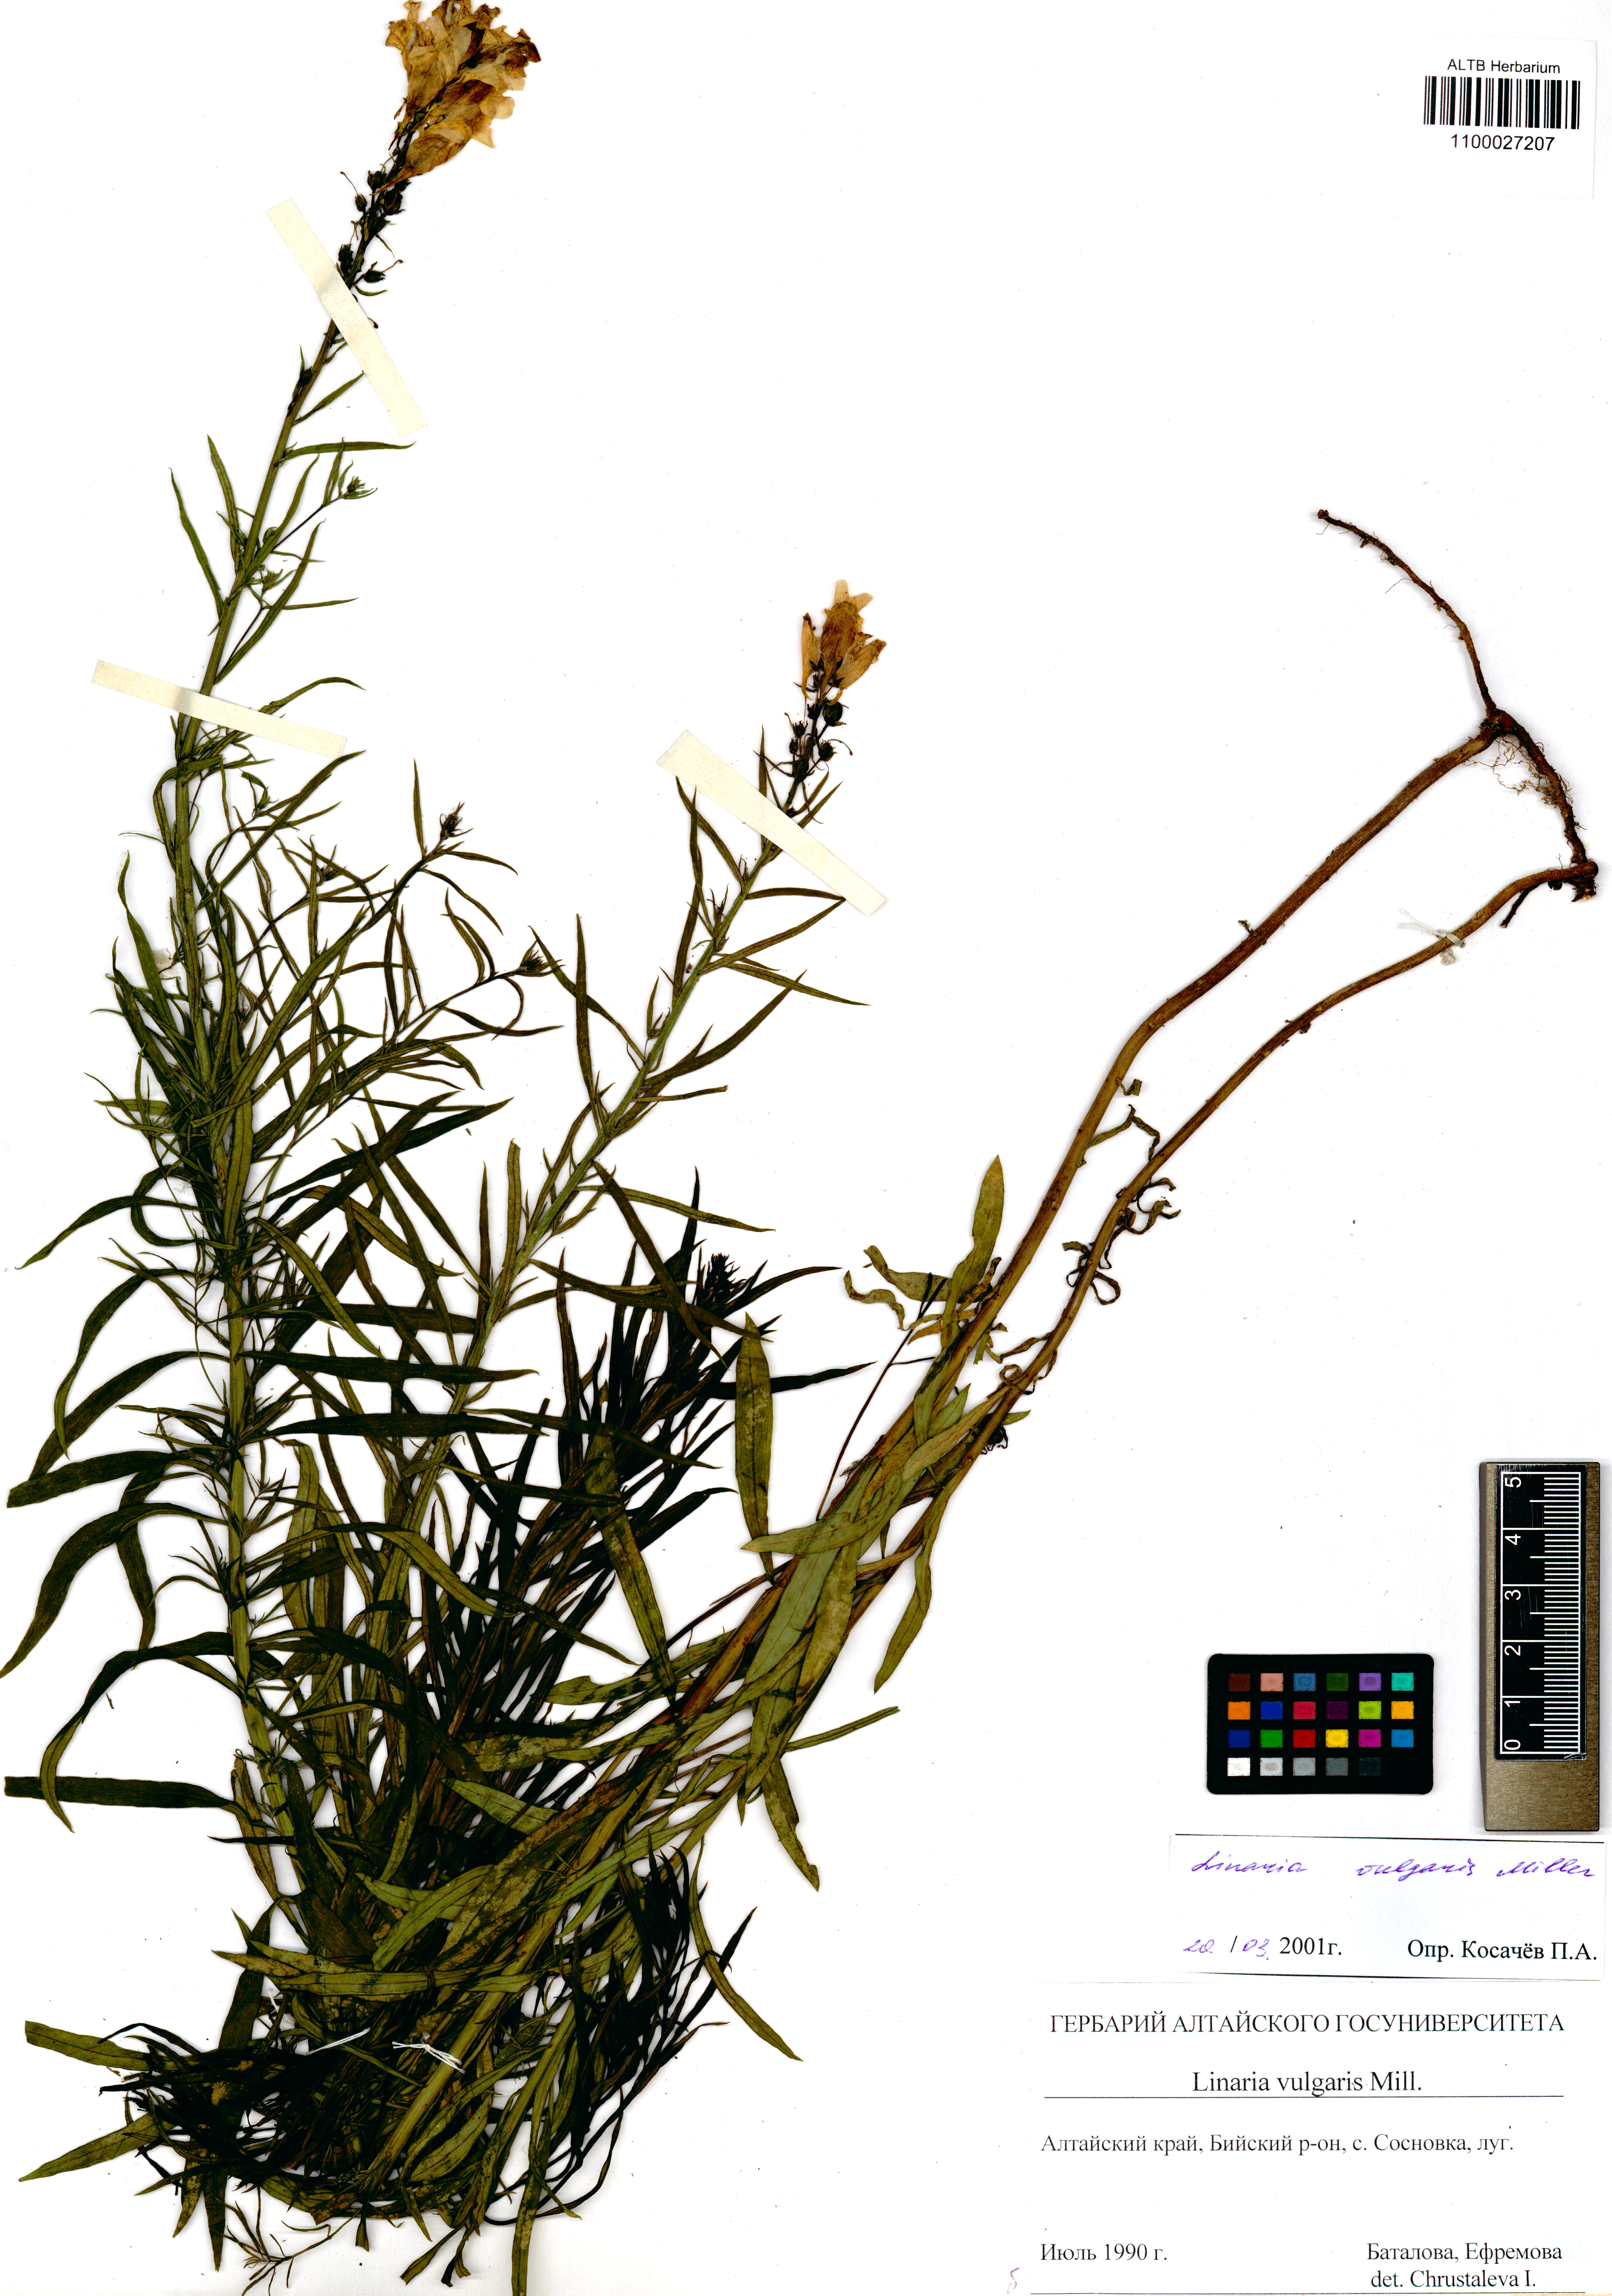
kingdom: Plantae
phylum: Tracheophyta
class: Magnoliopsida
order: Lamiales
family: Plantaginaceae
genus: Linaria
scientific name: Linaria vulgaris
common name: Butter and eggs
